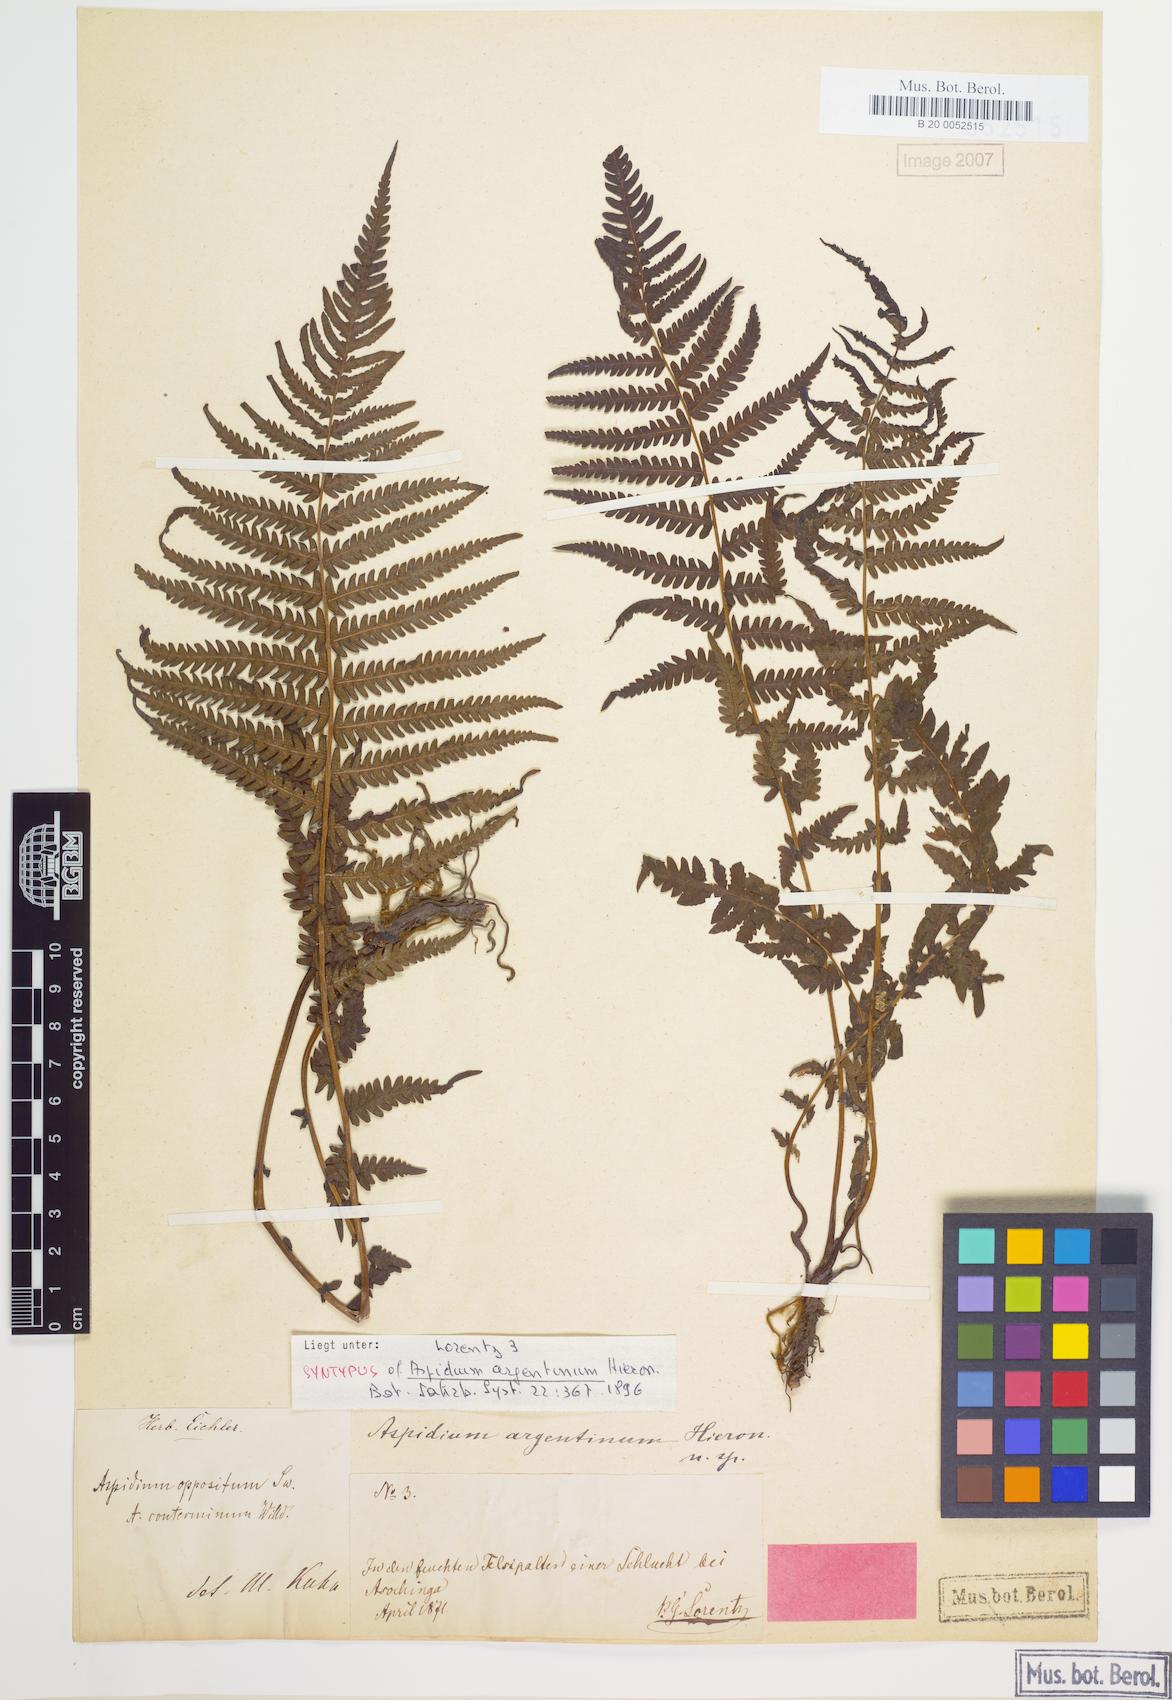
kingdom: Plantae
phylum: Tracheophyta
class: Polypodiopsida
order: Polypodiales
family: Thelypteridaceae
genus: Amauropelta
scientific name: Amauropelta argentina
